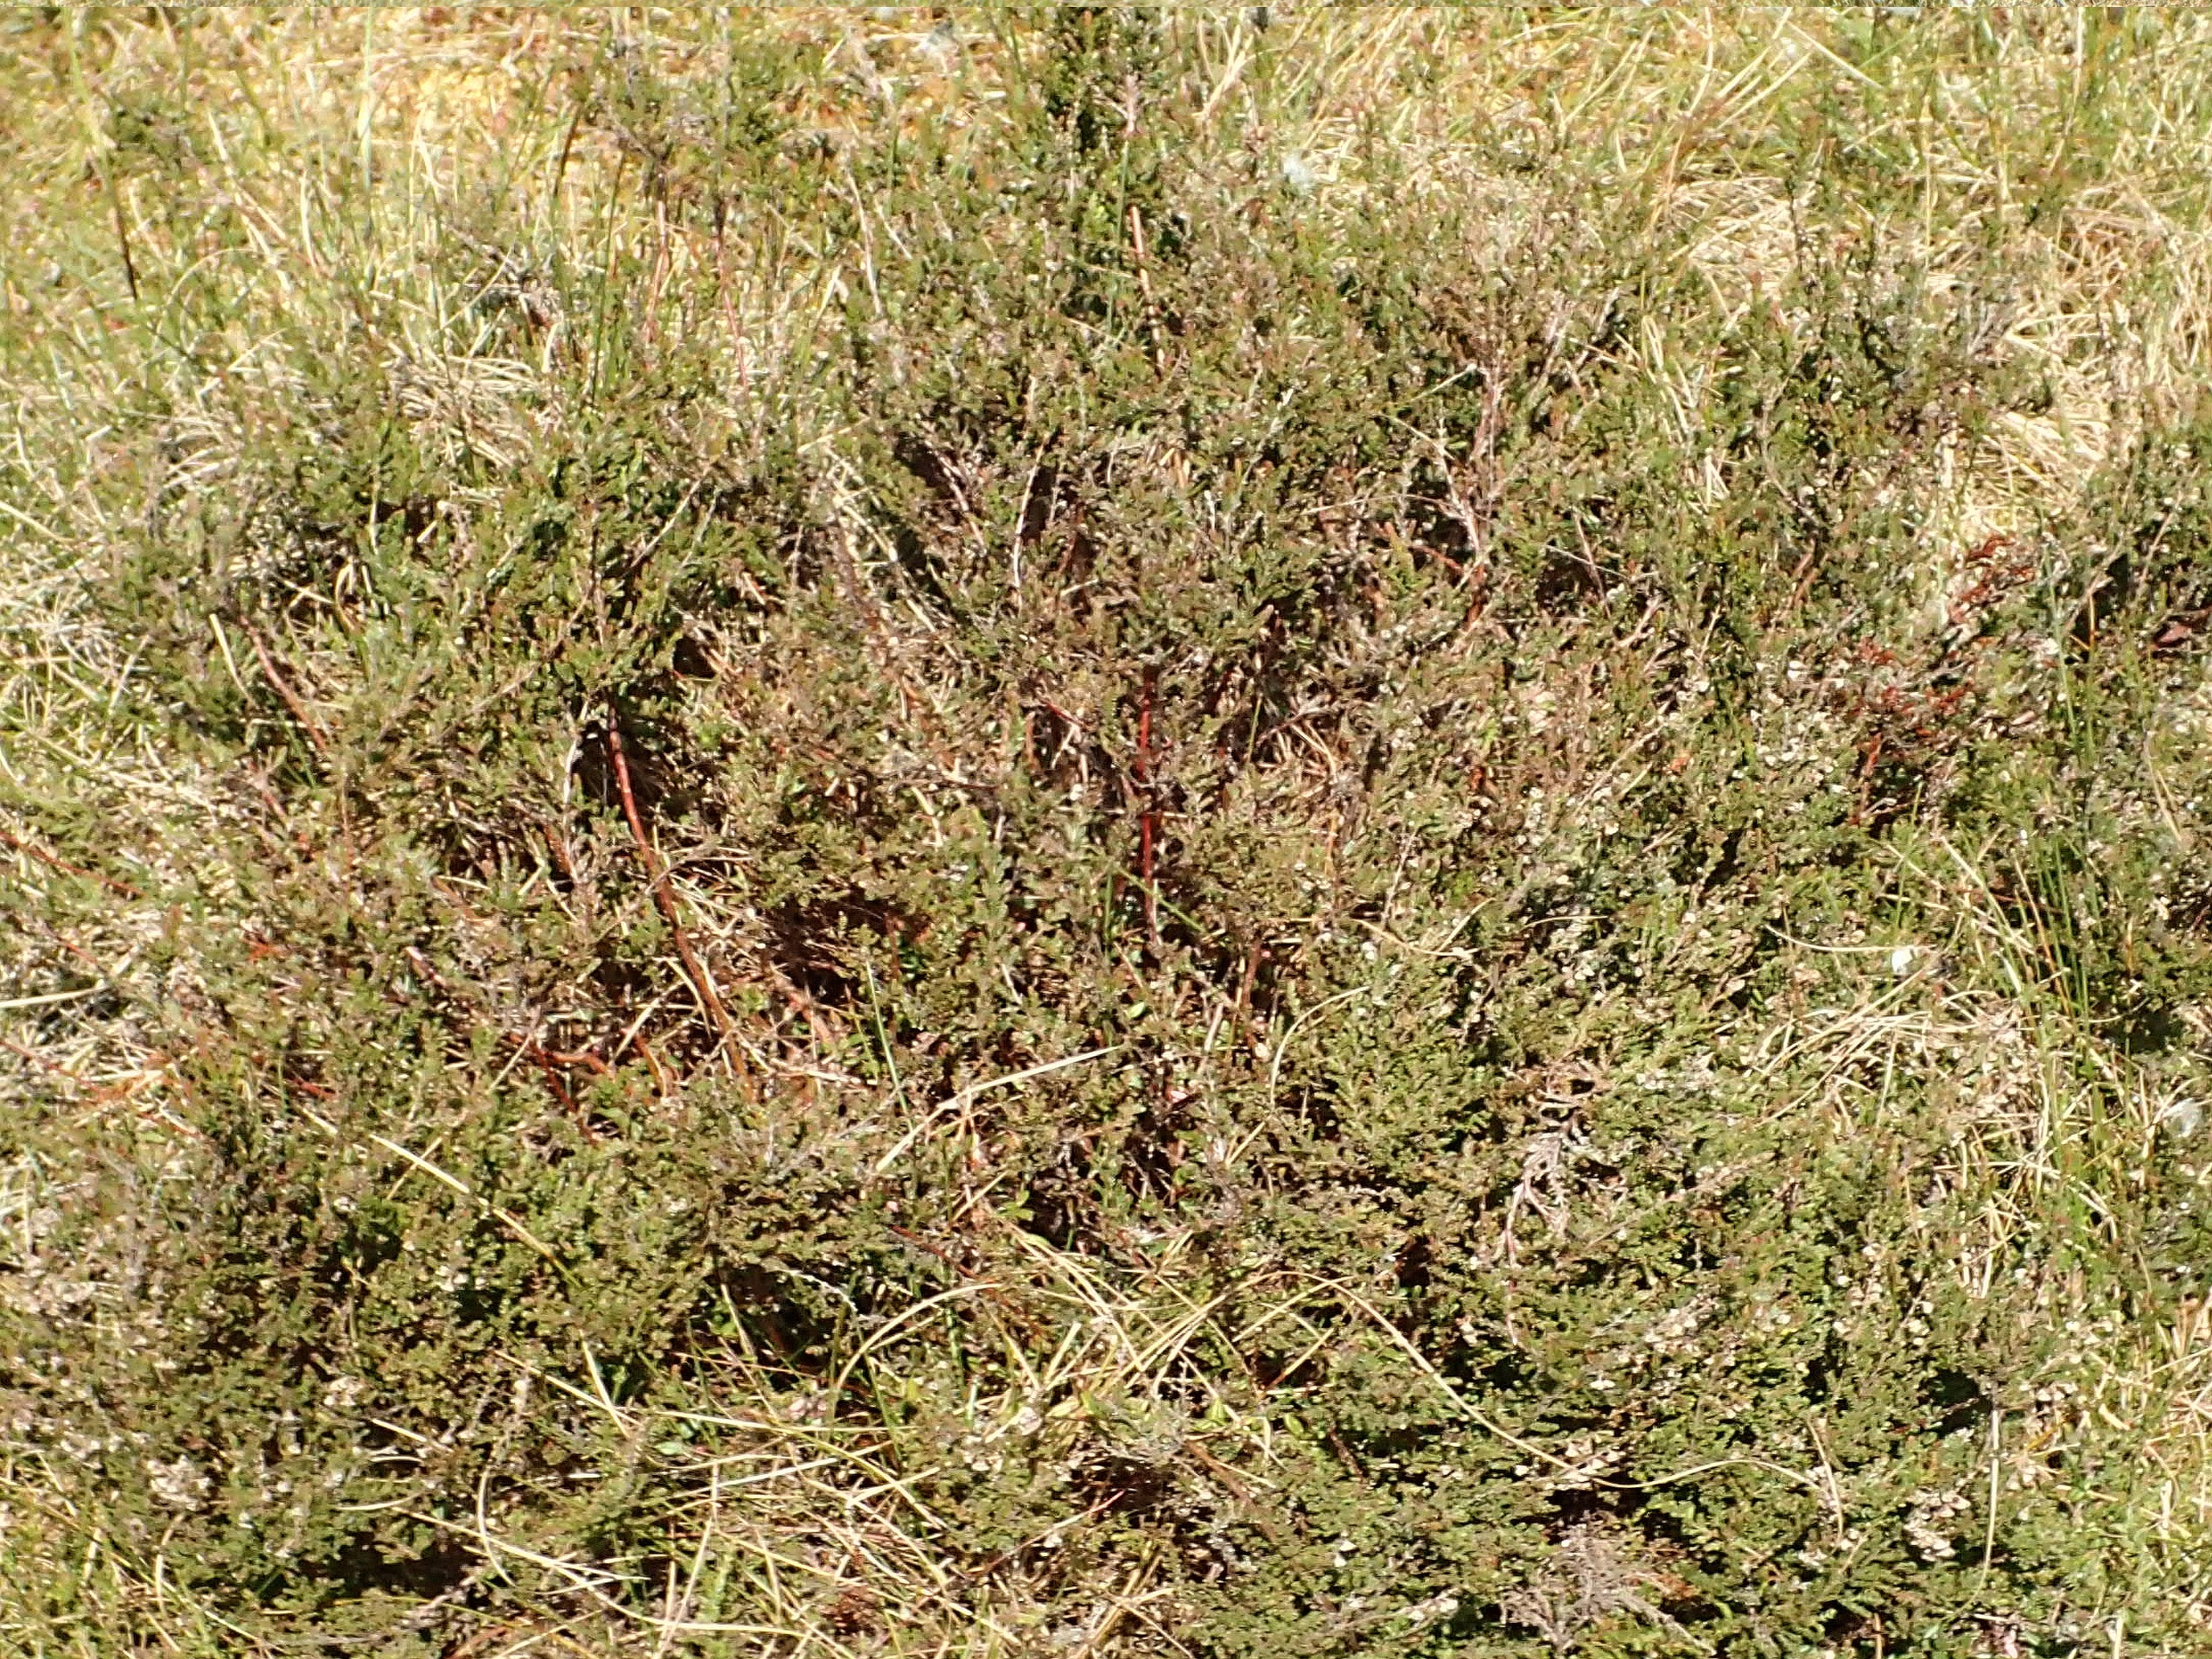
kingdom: Plantae
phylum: Tracheophyta
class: Magnoliopsida
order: Ericales
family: Ericaceae
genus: Calluna
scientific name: Calluna vulgaris
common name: Hedelyng
